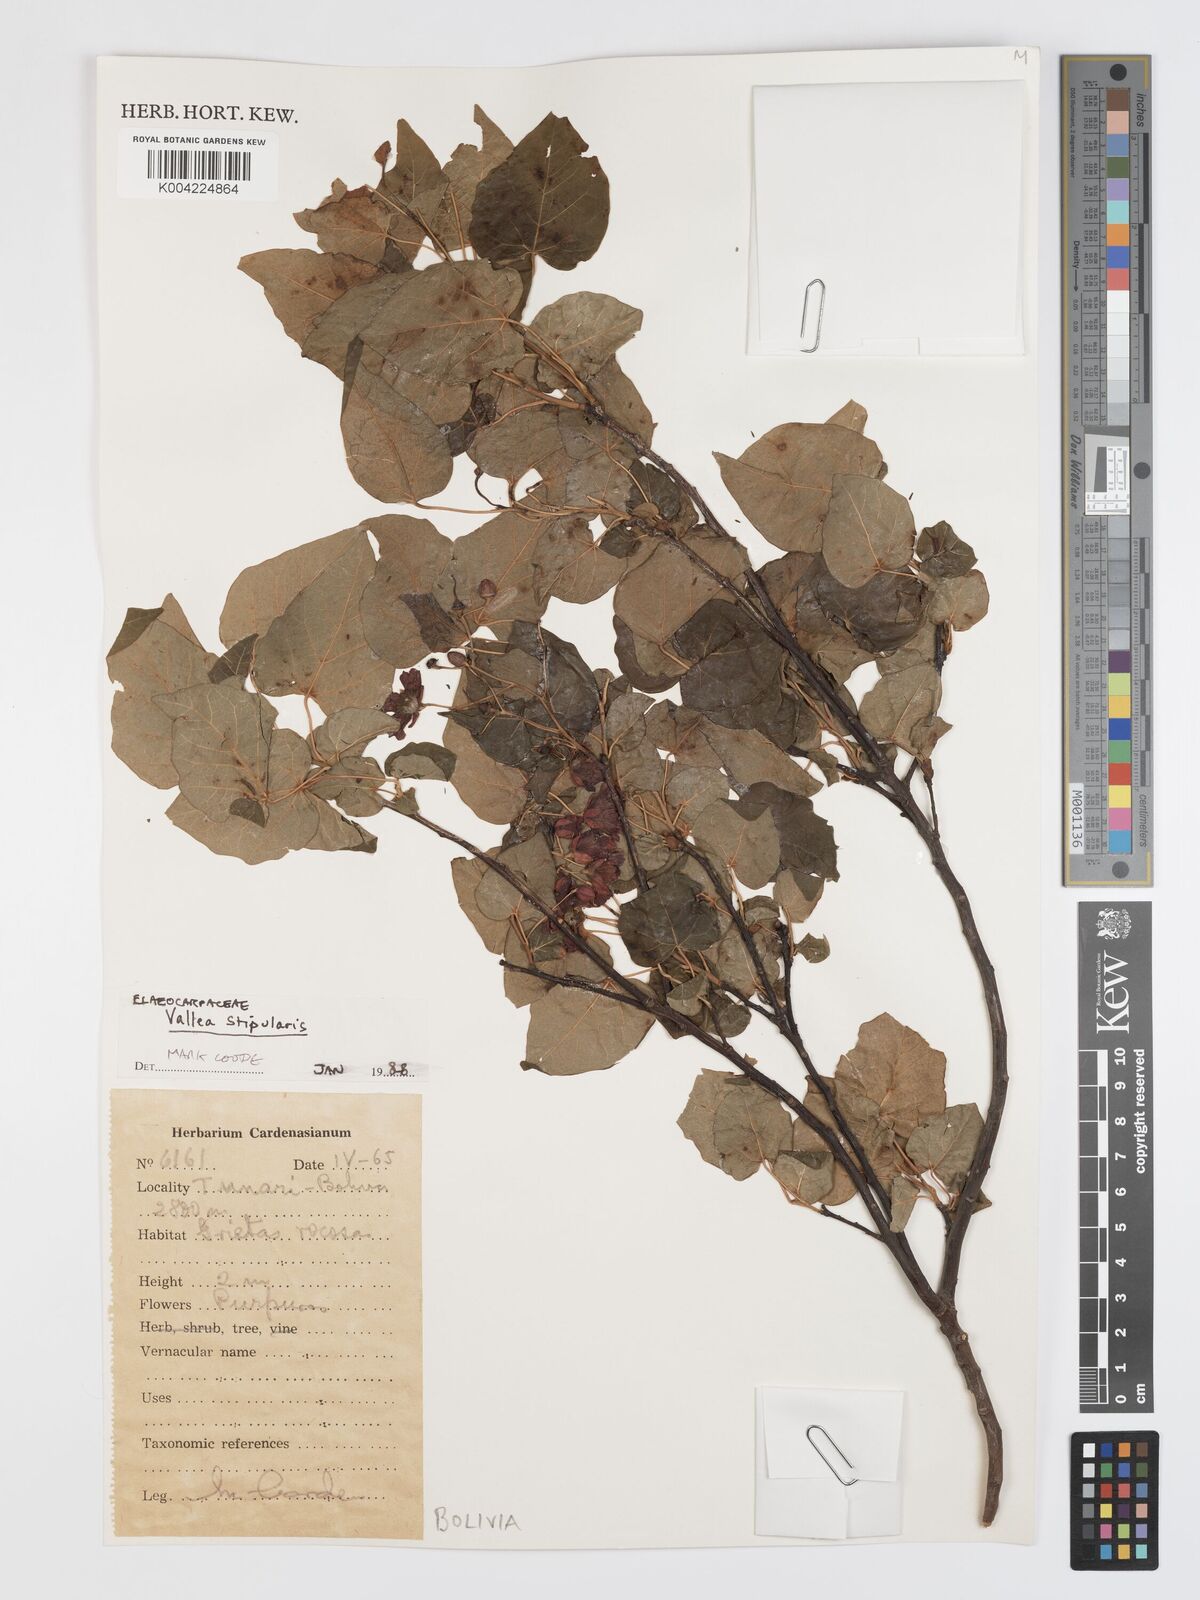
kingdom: Plantae
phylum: Tracheophyta
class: Magnoliopsida
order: Oxalidales
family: Elaeocarpaceae
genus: Vallea
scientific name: Vallea stipularis
